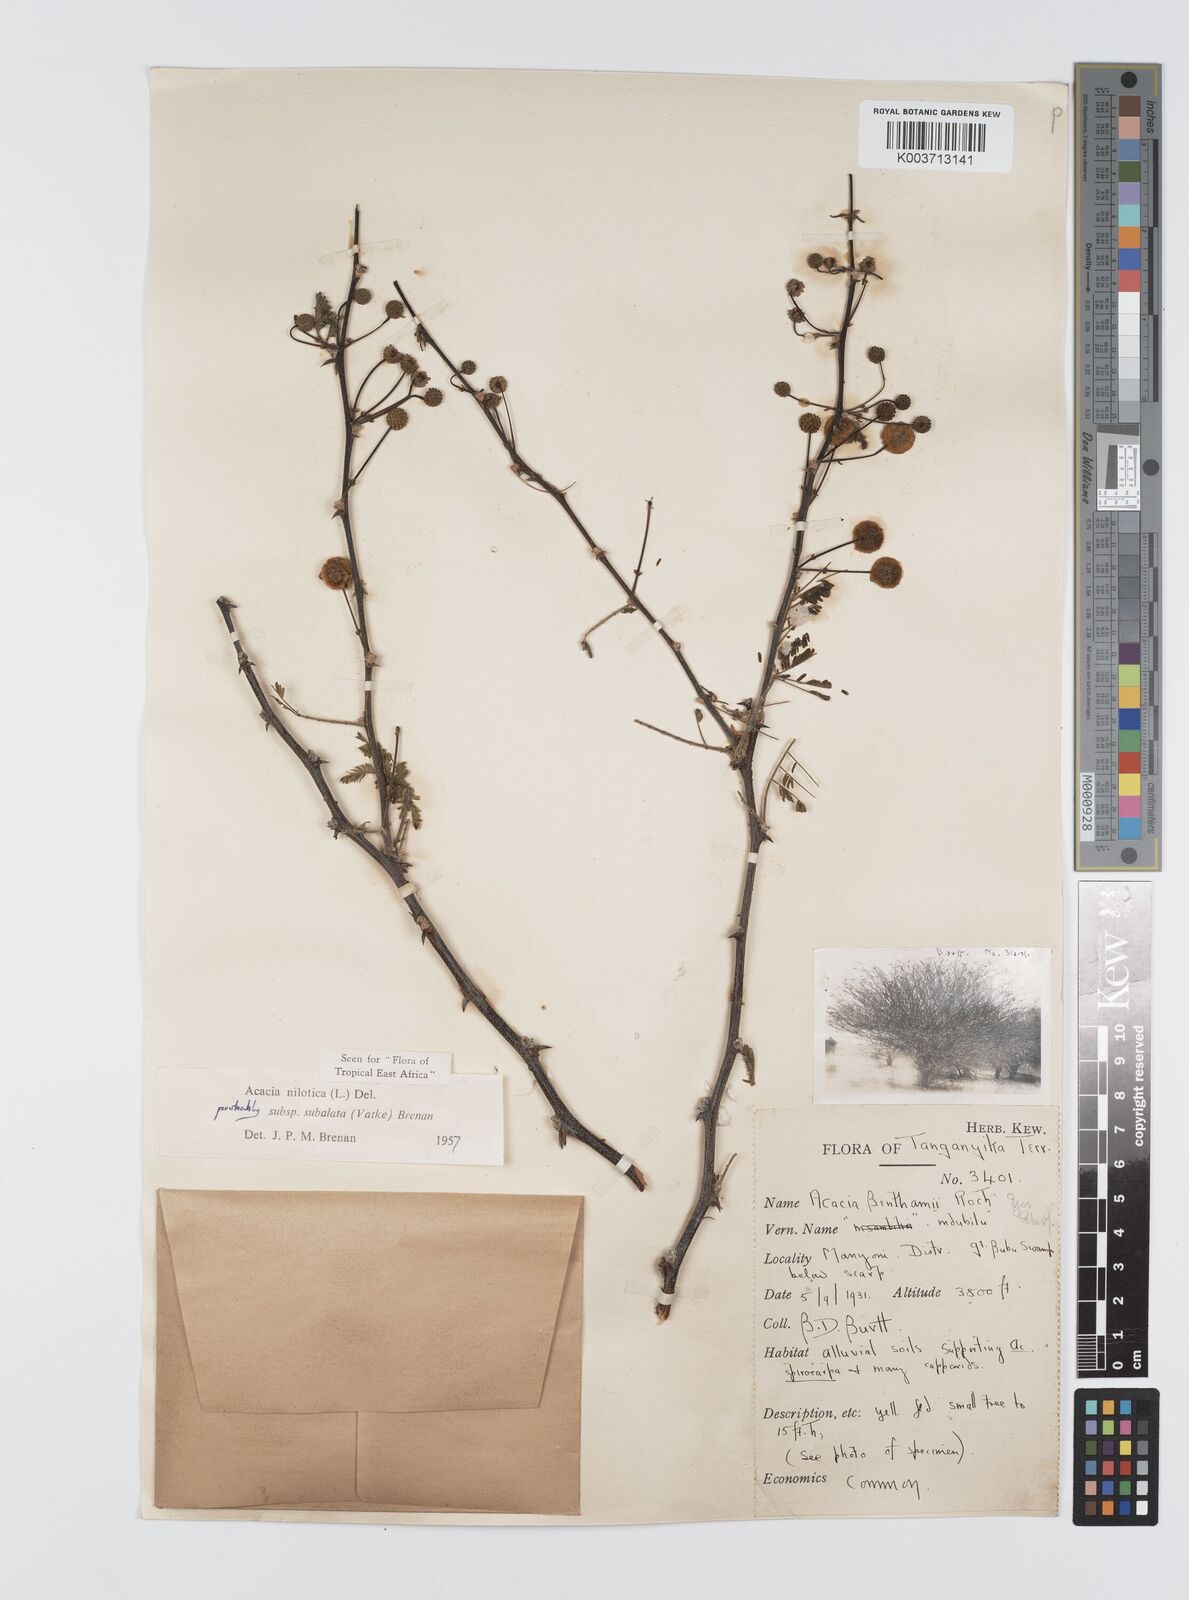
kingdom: Plantae
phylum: Tracheophyta
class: Magnoliopsida
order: Fabales
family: Fabaceae
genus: Vachellia
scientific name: Vachellia nilotica
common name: Arabic gumtree
